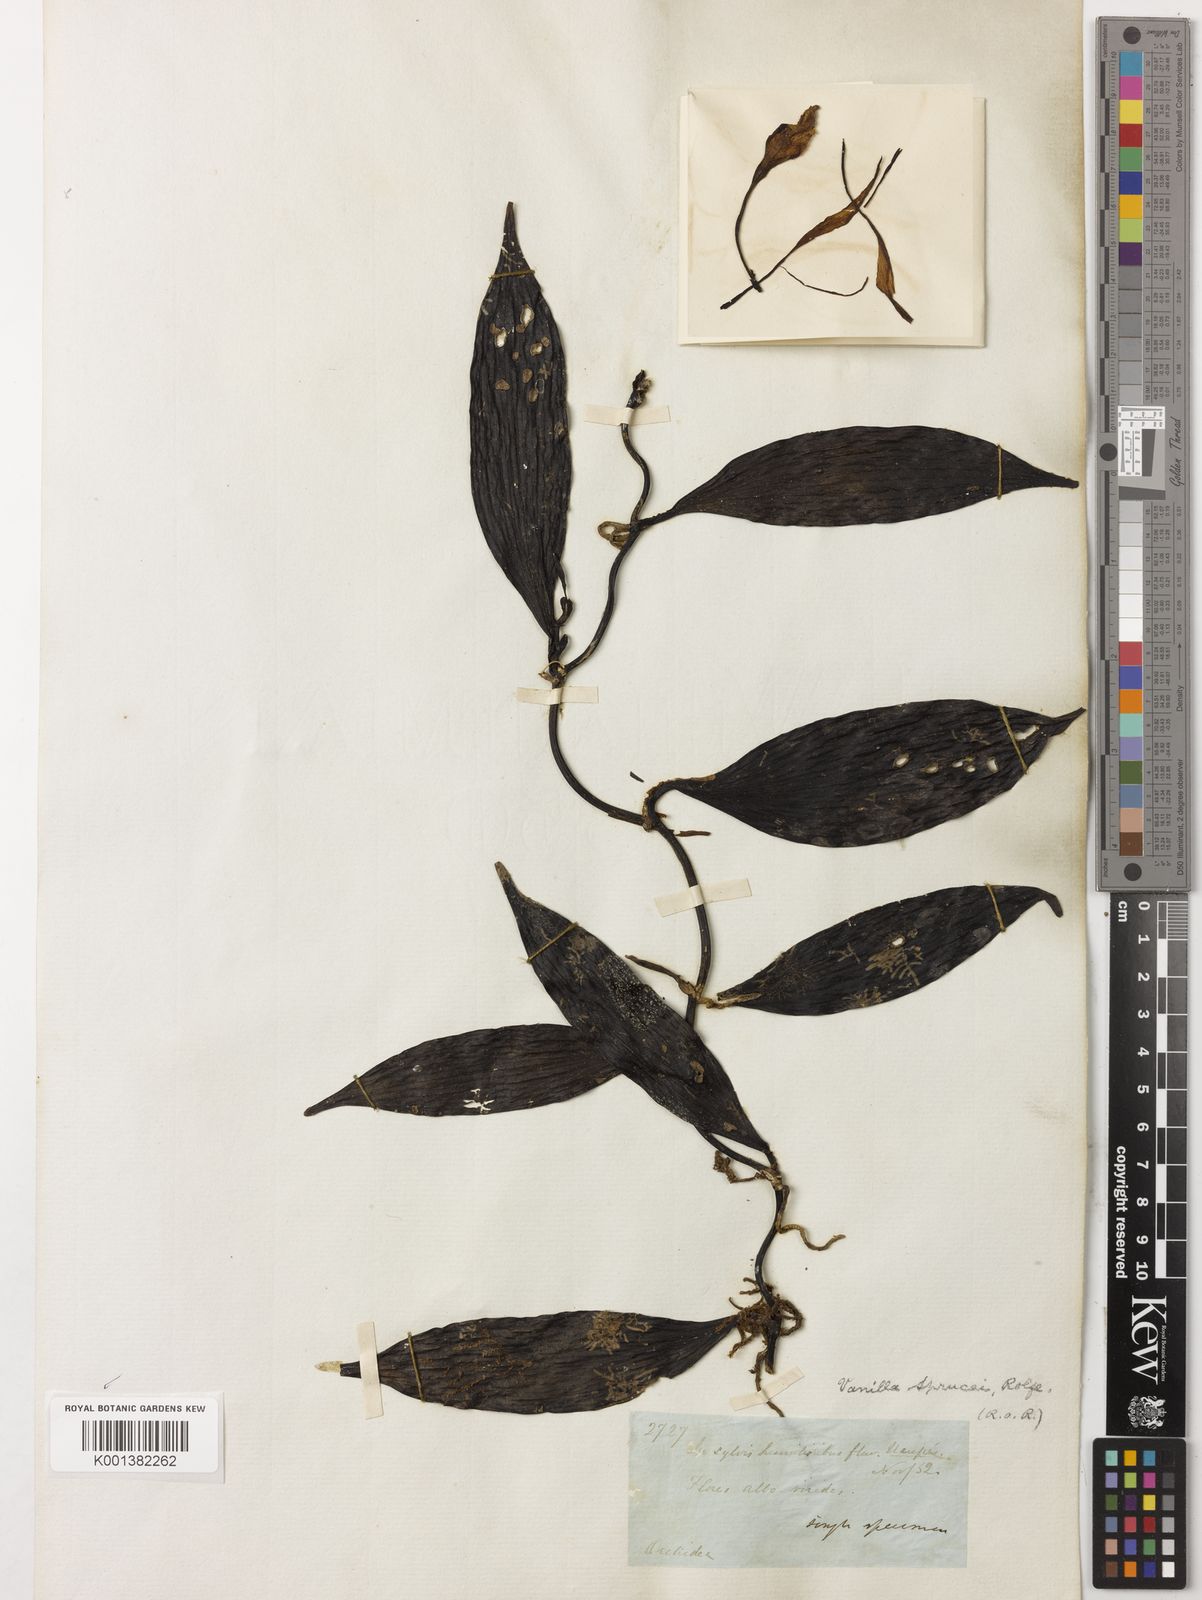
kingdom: Plantae
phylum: Tracheophyta
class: Liliopsida
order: Asparagales
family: Orchidaceae
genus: Vanilla
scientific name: Vanilla sprucei
